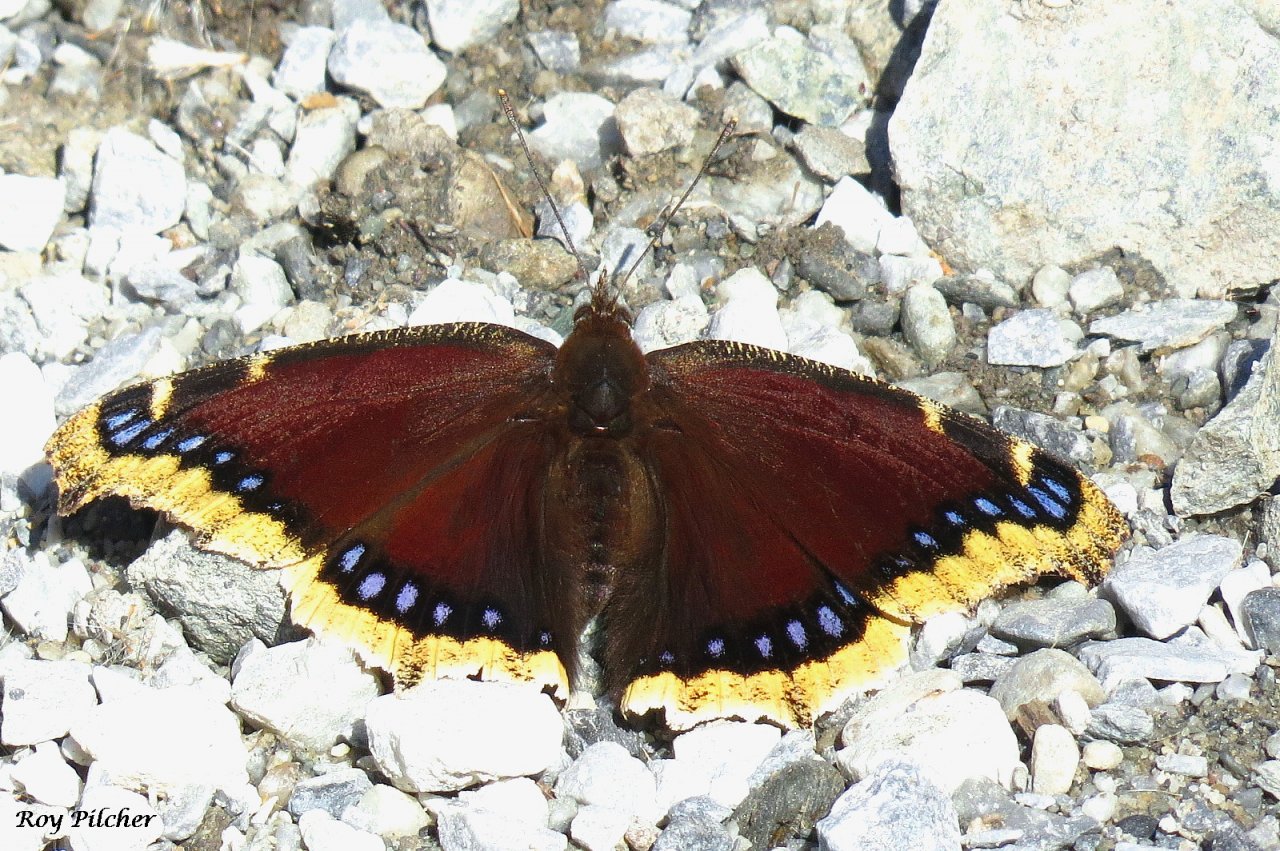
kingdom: Animalia
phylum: Arthropoda
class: Insecta
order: Lepidoptera
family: Nymphalidae
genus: Nymphalis
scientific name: Nymphalis antiopa
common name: Mourning Cloak
